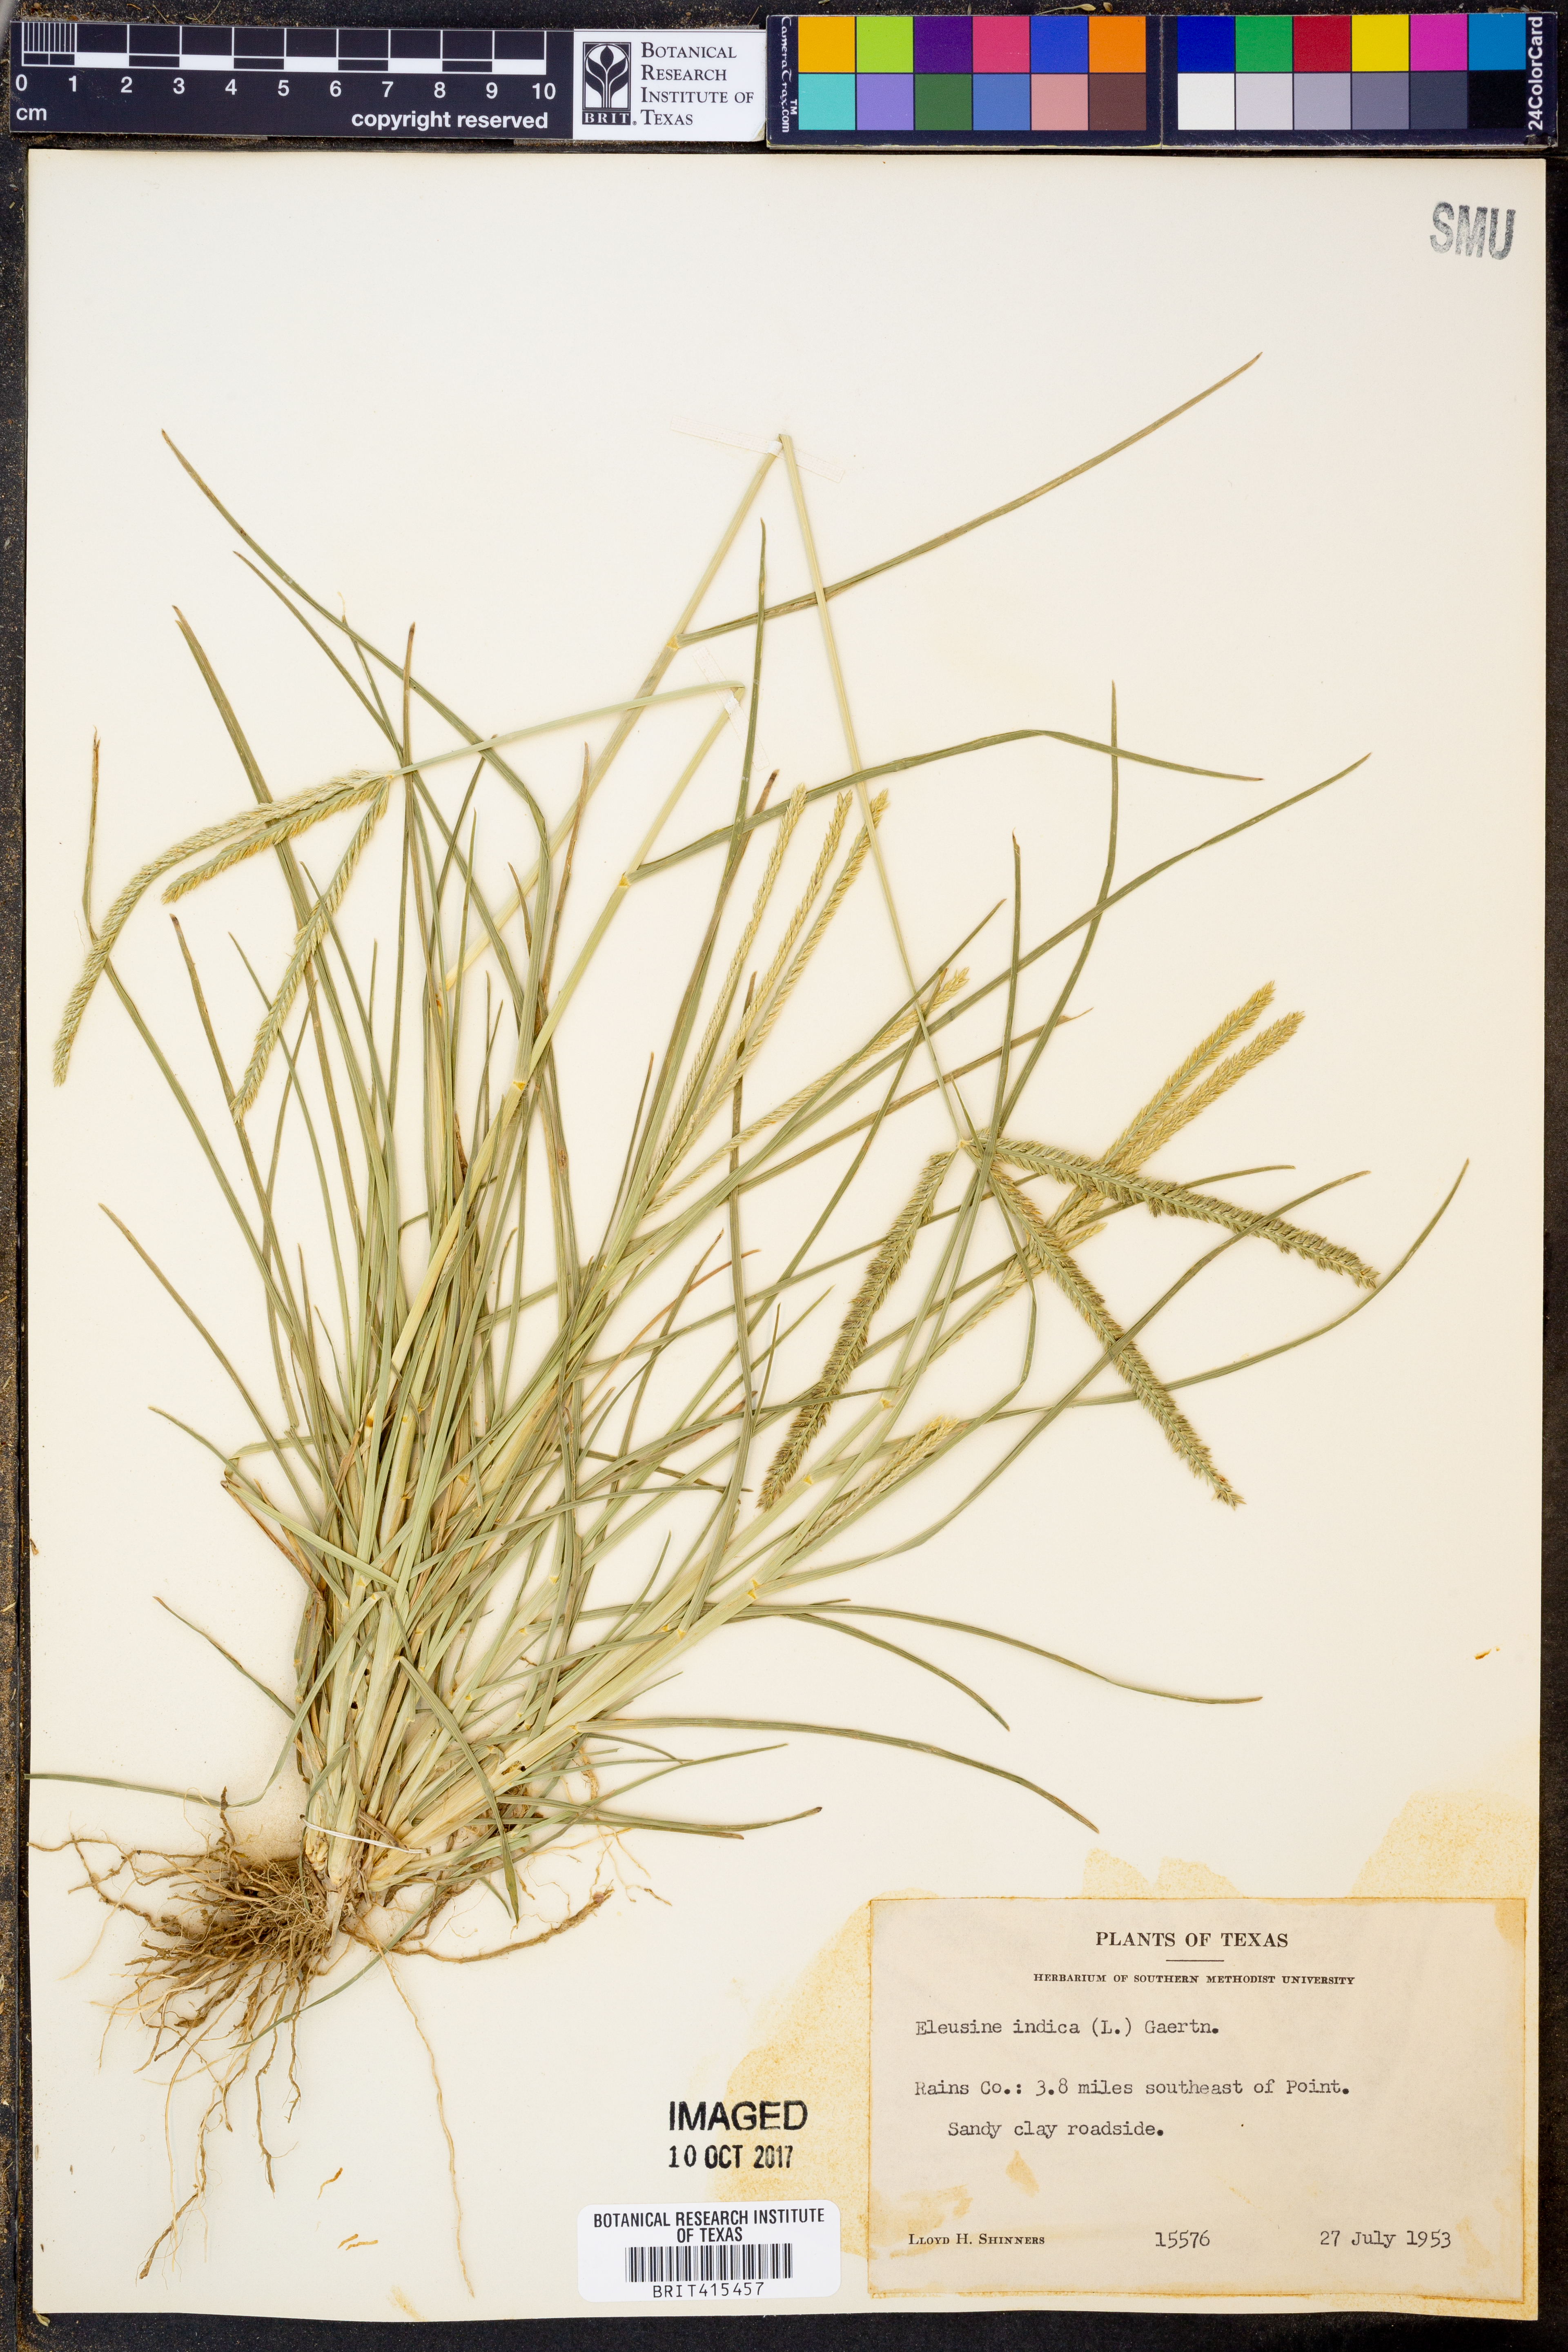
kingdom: Plantae
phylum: Tracheophyta
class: Liliopsida
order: Poales
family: Poaceae
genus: Eleusine
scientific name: Eleusine indica
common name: Yard-grass
